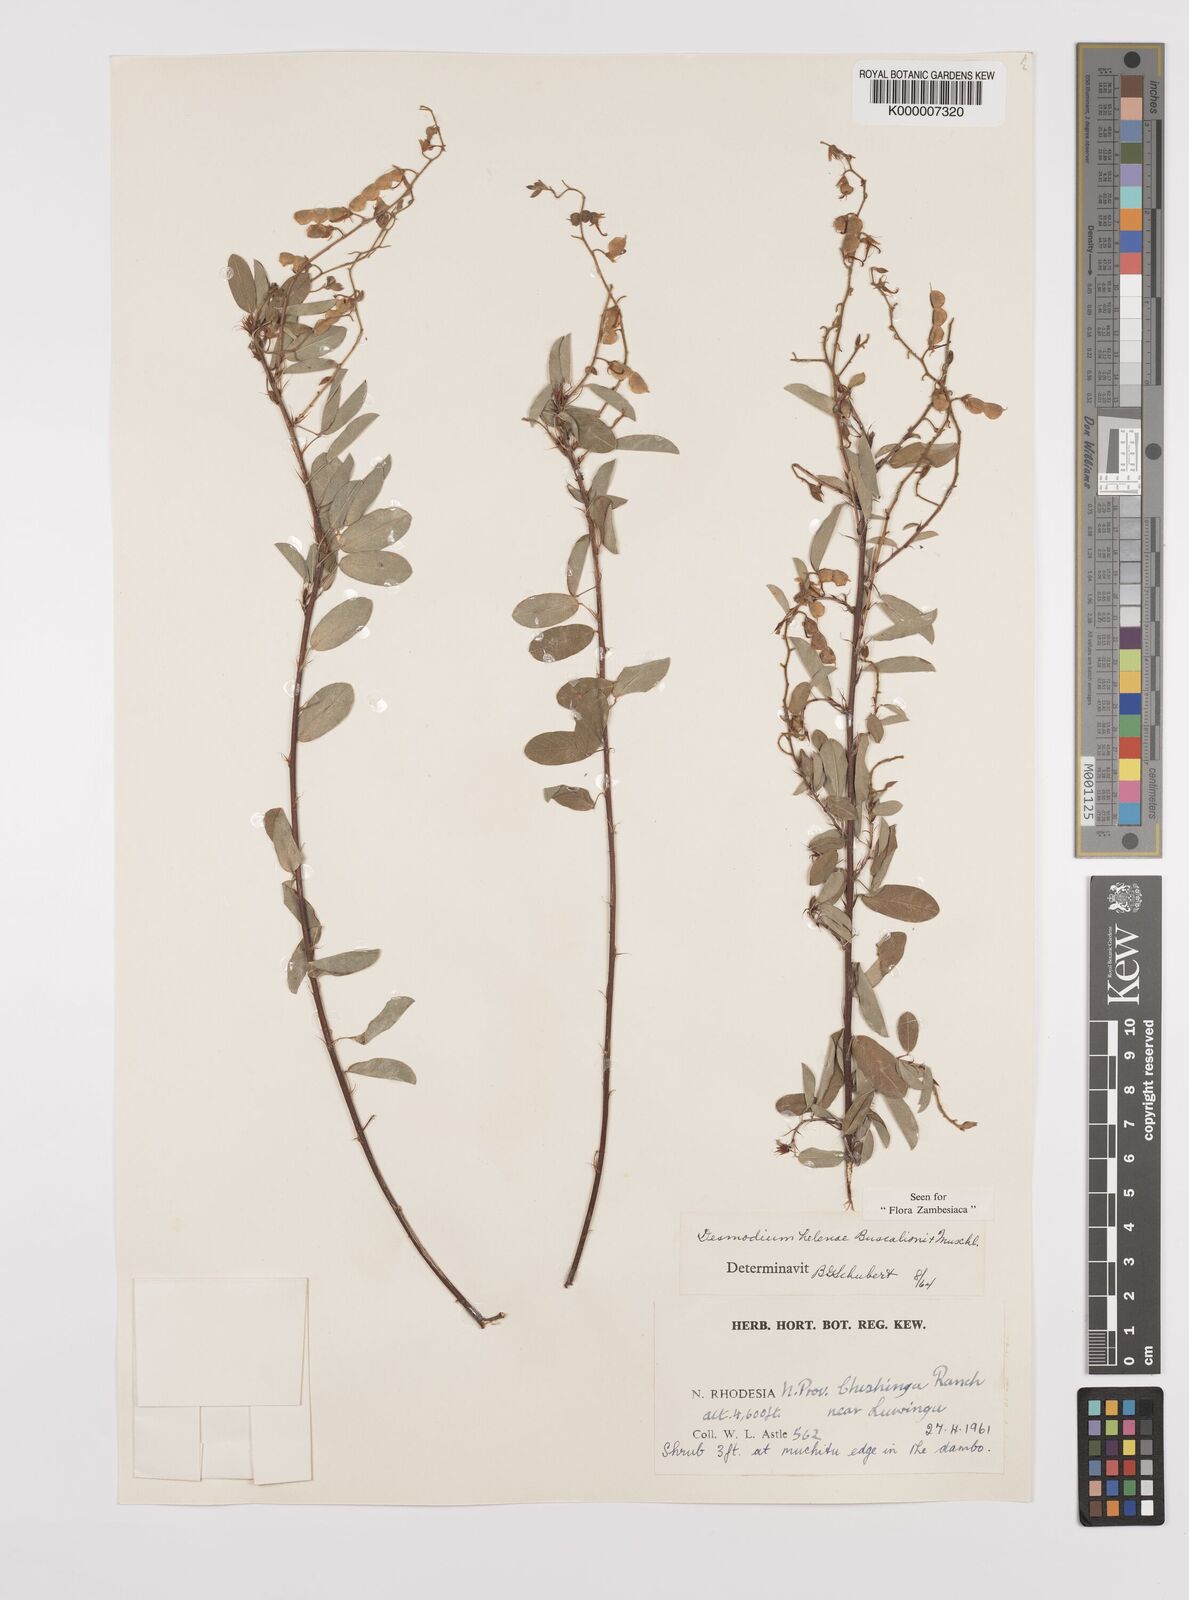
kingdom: Plantae
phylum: Tracheophyta
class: Magnoliopsida
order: Fabales
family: Fabaceae
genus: Grona
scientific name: Grona helenae
